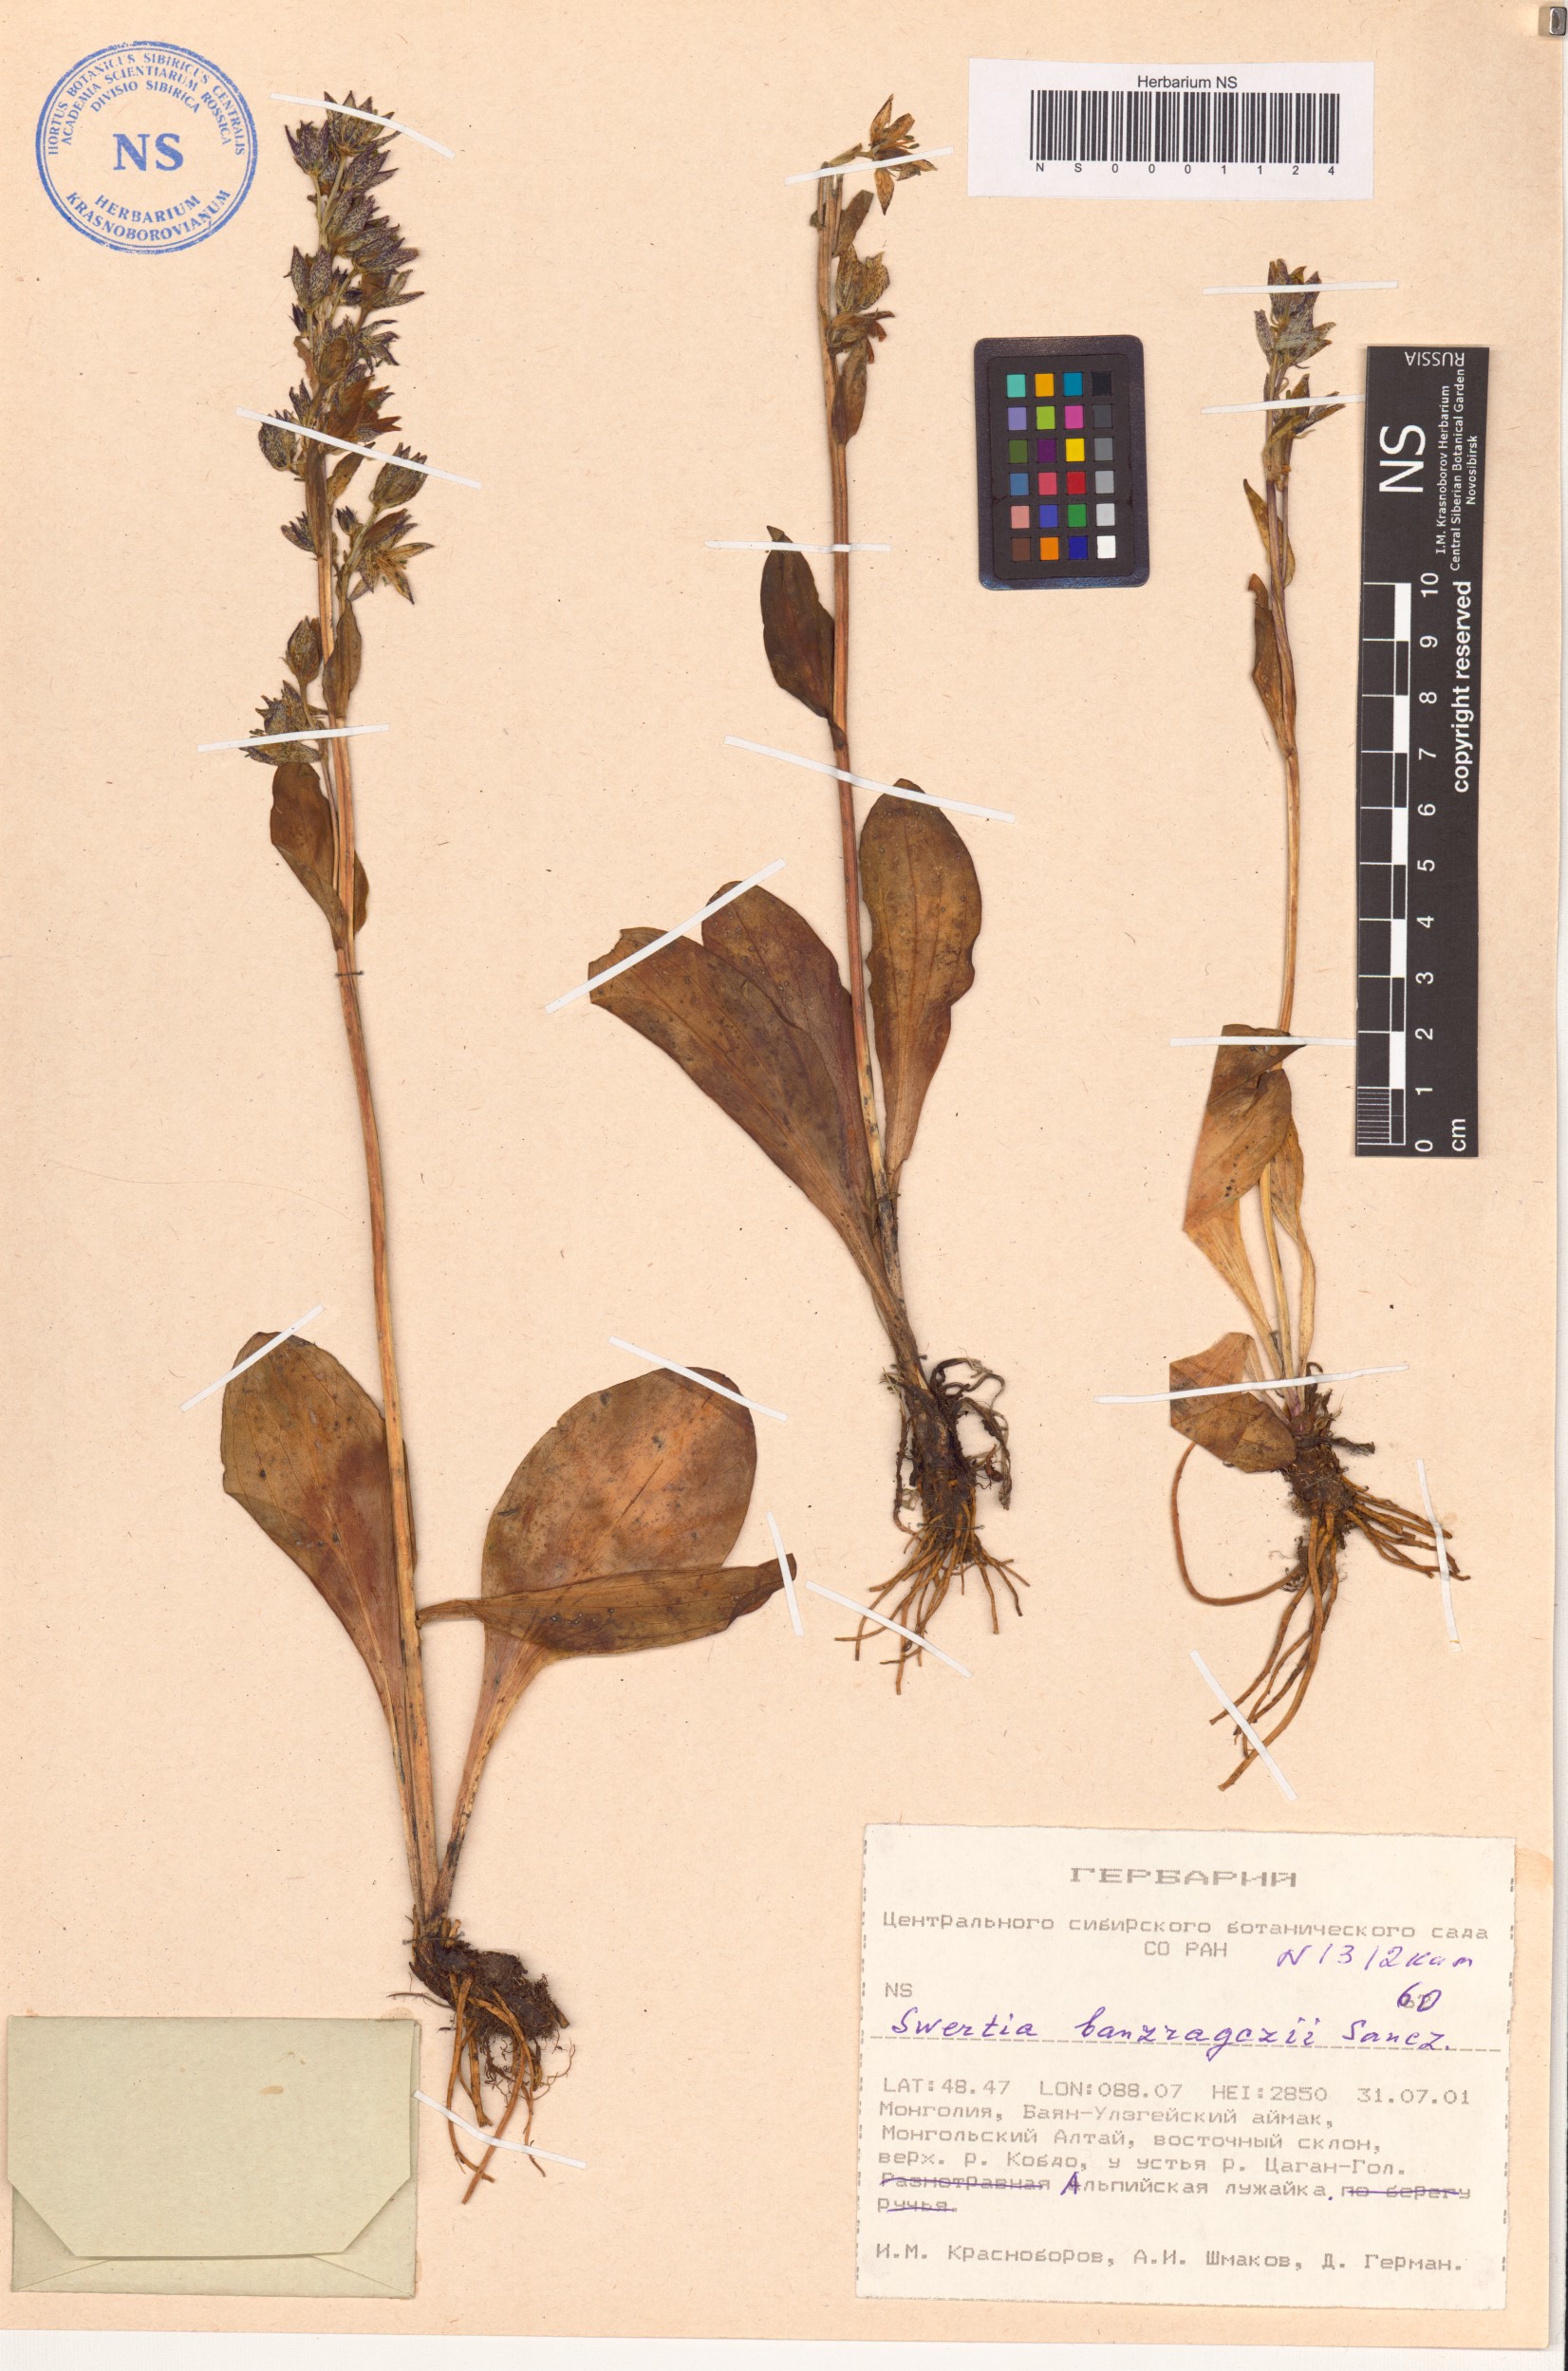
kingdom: Plantae
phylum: Tracheophyta
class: Magnoliopsida
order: Gentianales
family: Gentianaceae
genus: Swertia
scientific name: Swertia banzragczii
